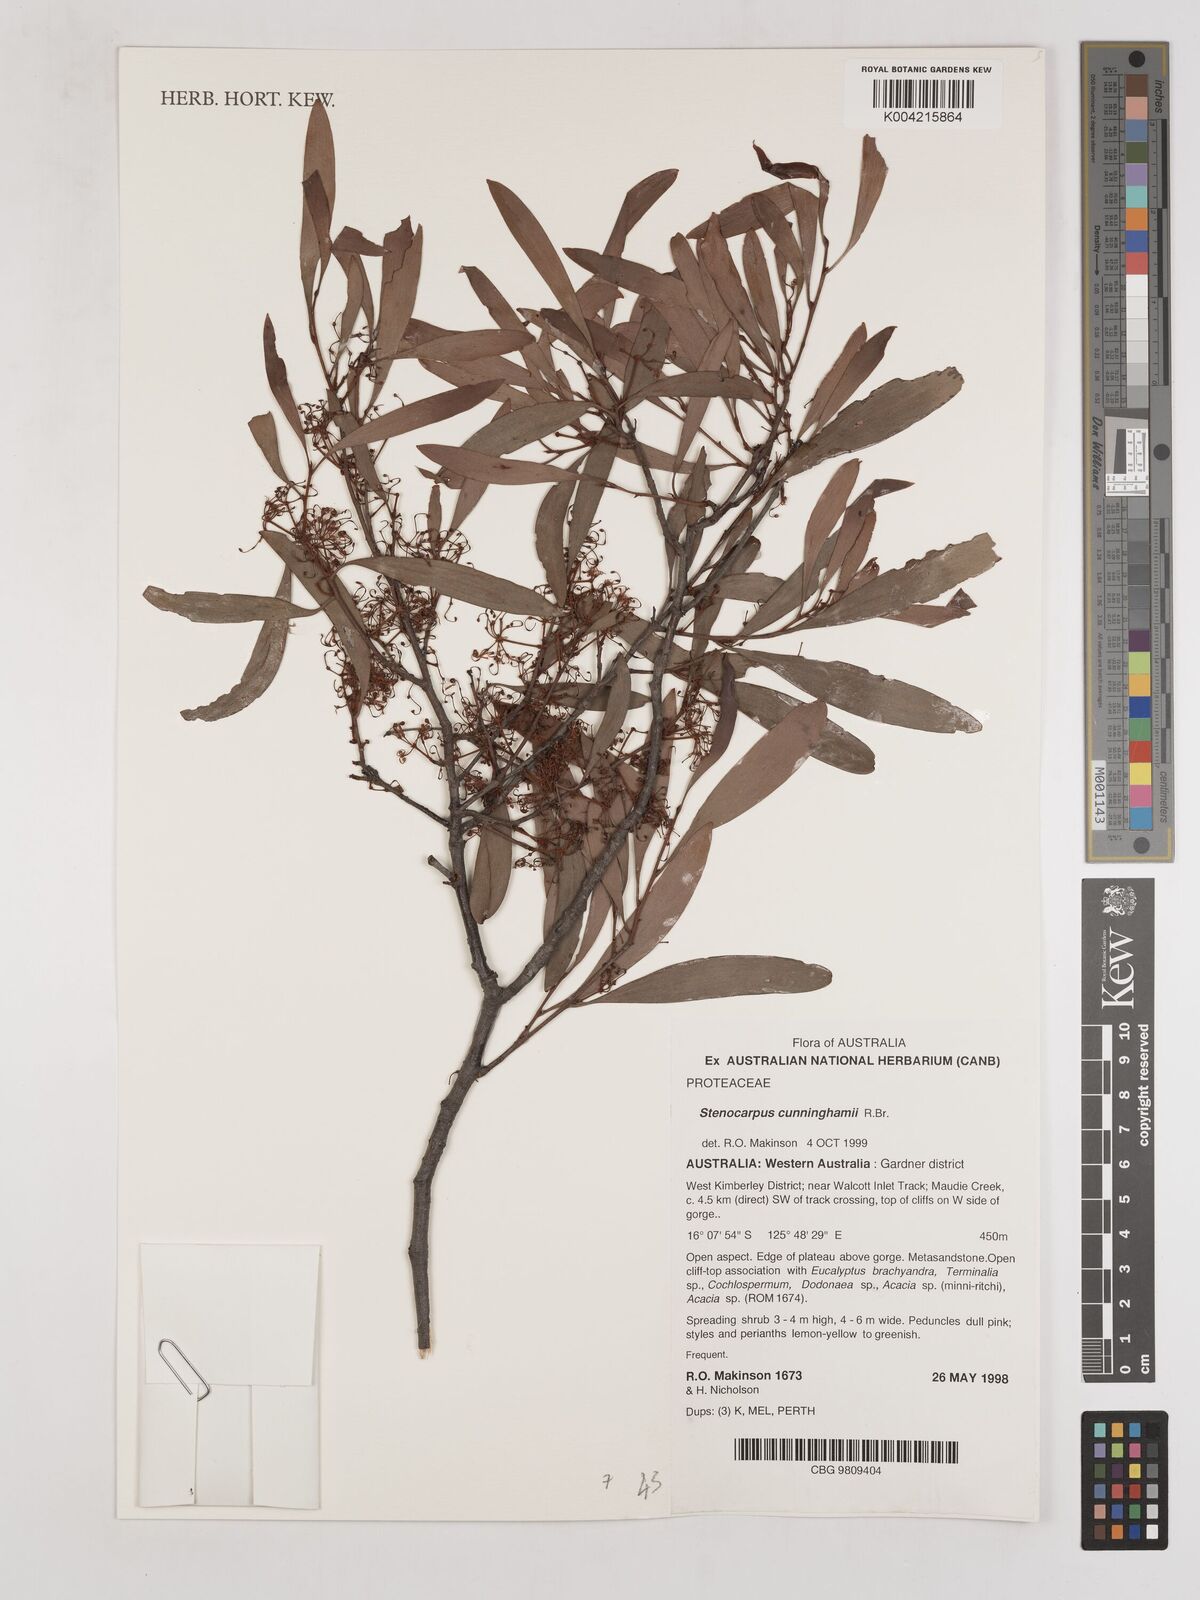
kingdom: Plantae
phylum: Tracheophyta
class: Magnoliopsida
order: Proteales
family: Proteaceae
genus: Stenocarpus
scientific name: Stenocarpus cunninghamii
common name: Little wheelbush
